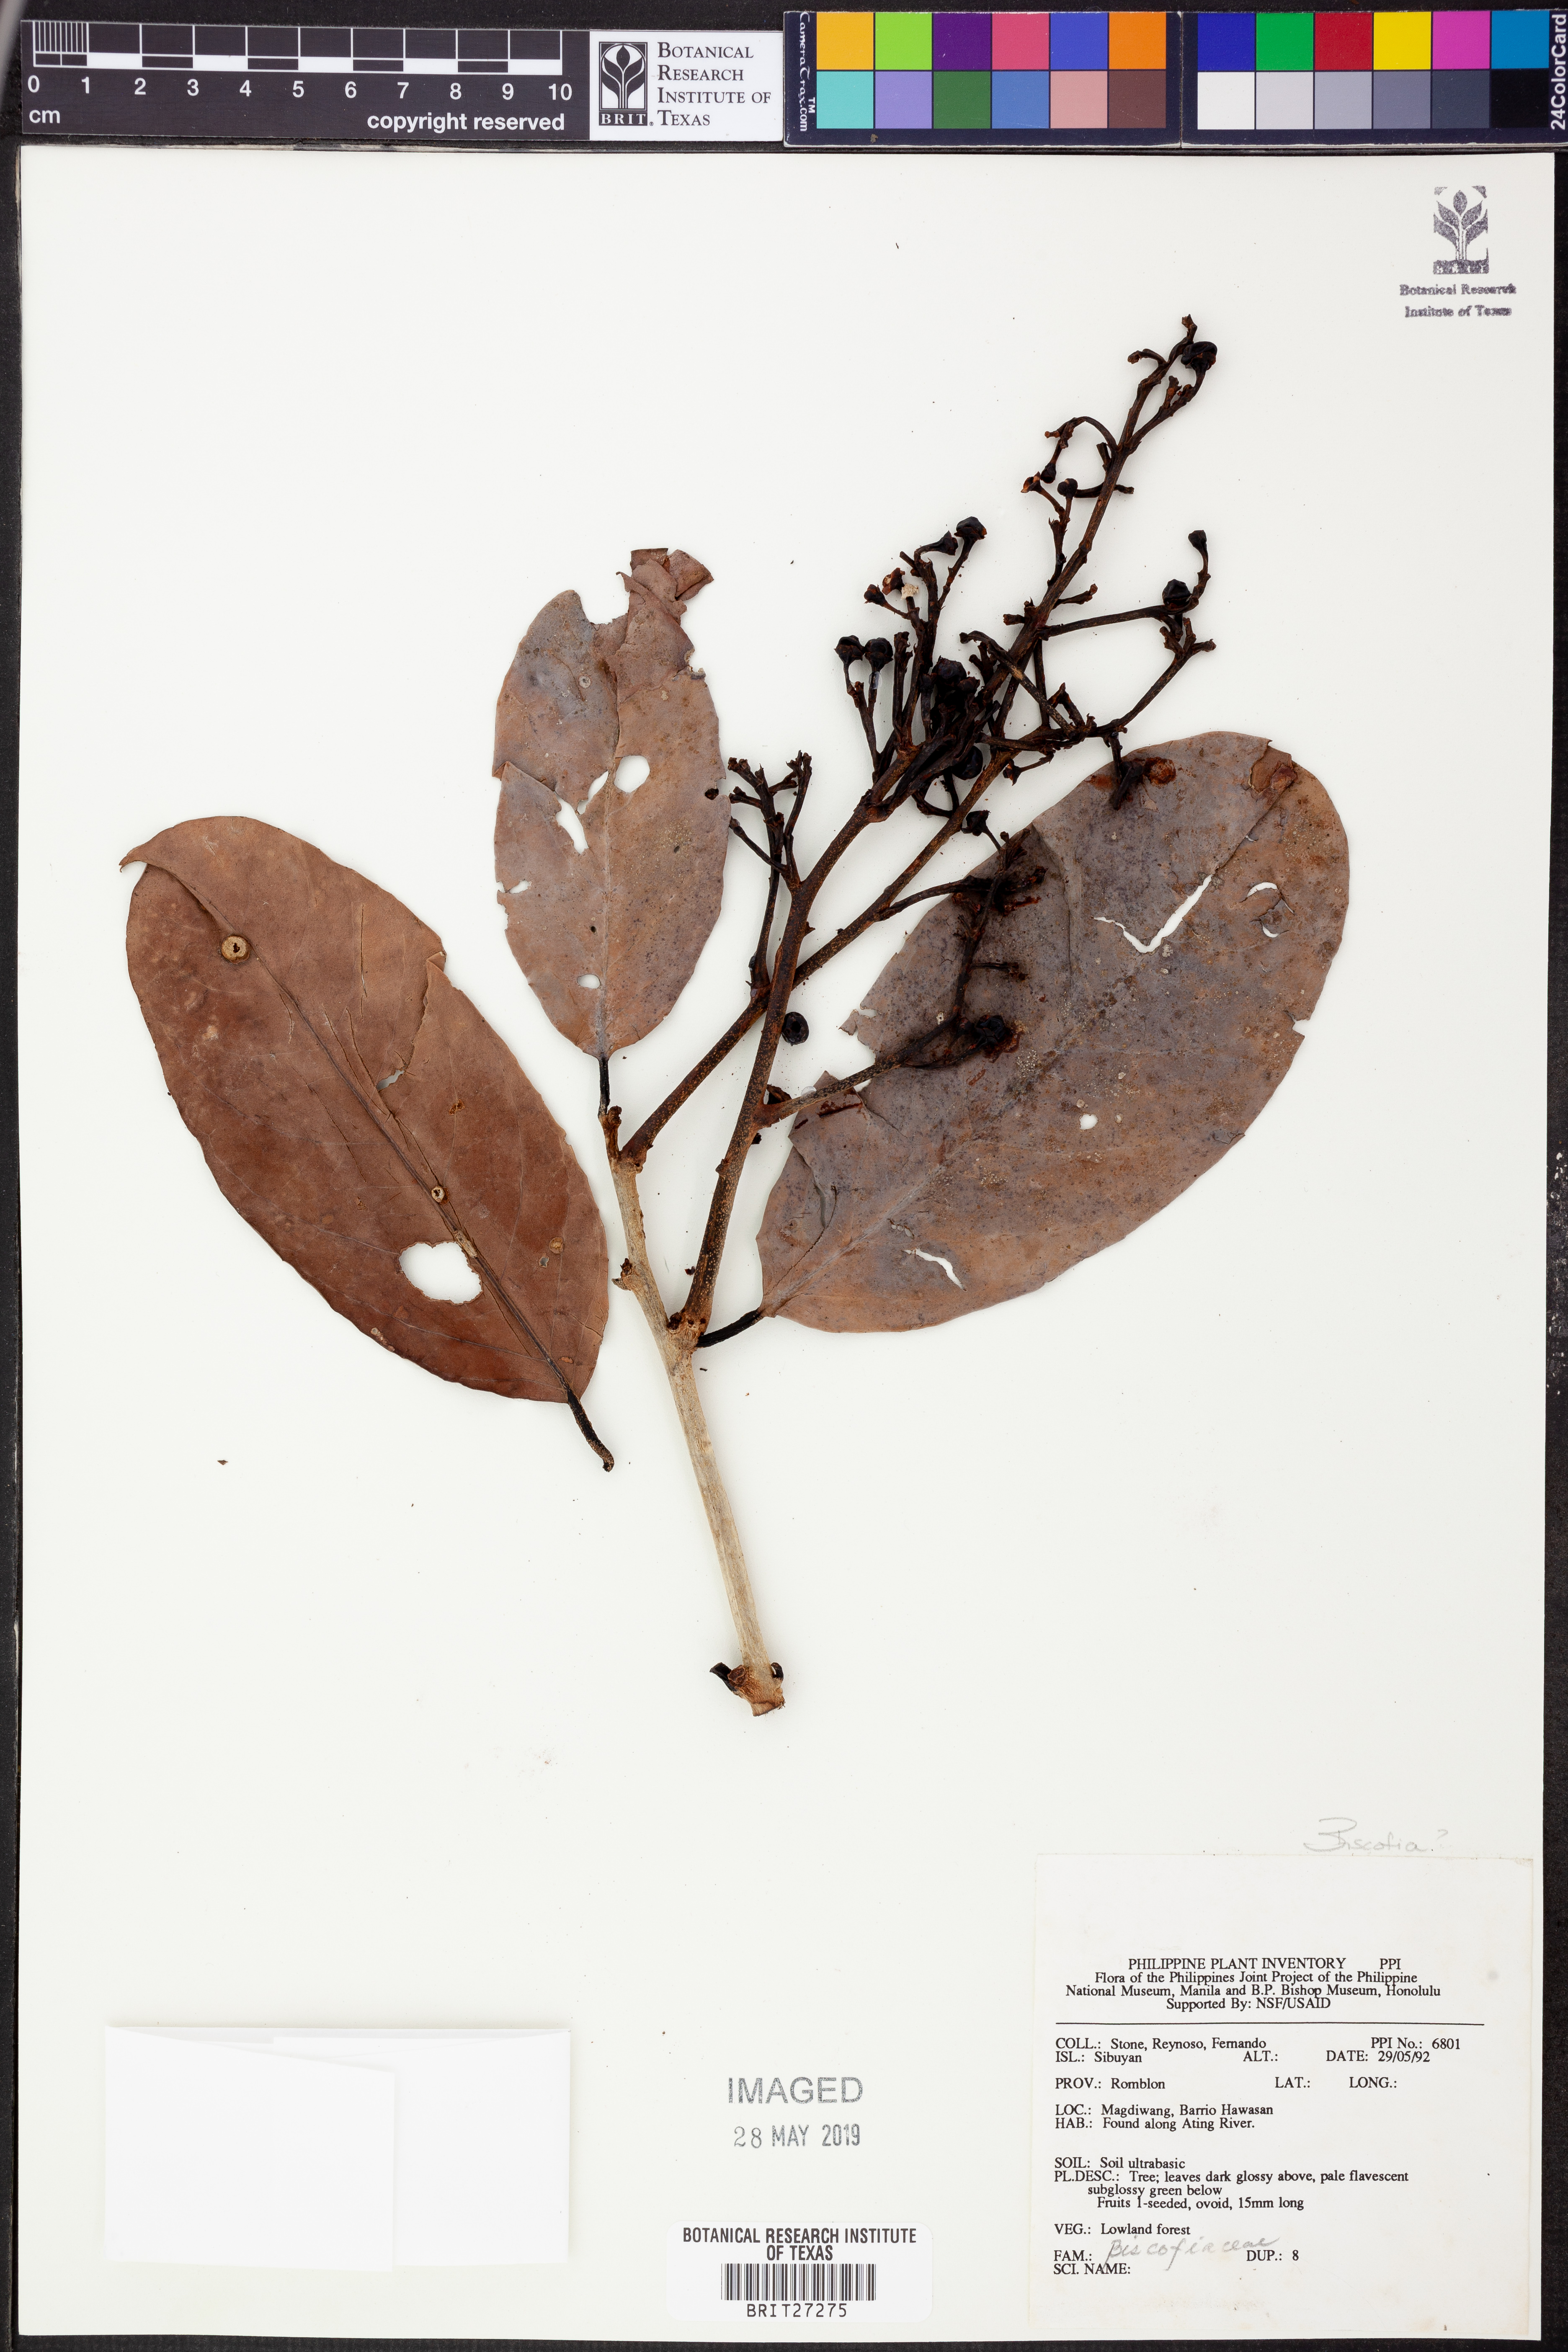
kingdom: Plantae
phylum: Tracheophyta
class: Magnoliopsida
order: Malpighiales
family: Phyllanthaceae
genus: Bischofia
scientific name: Bischofia
